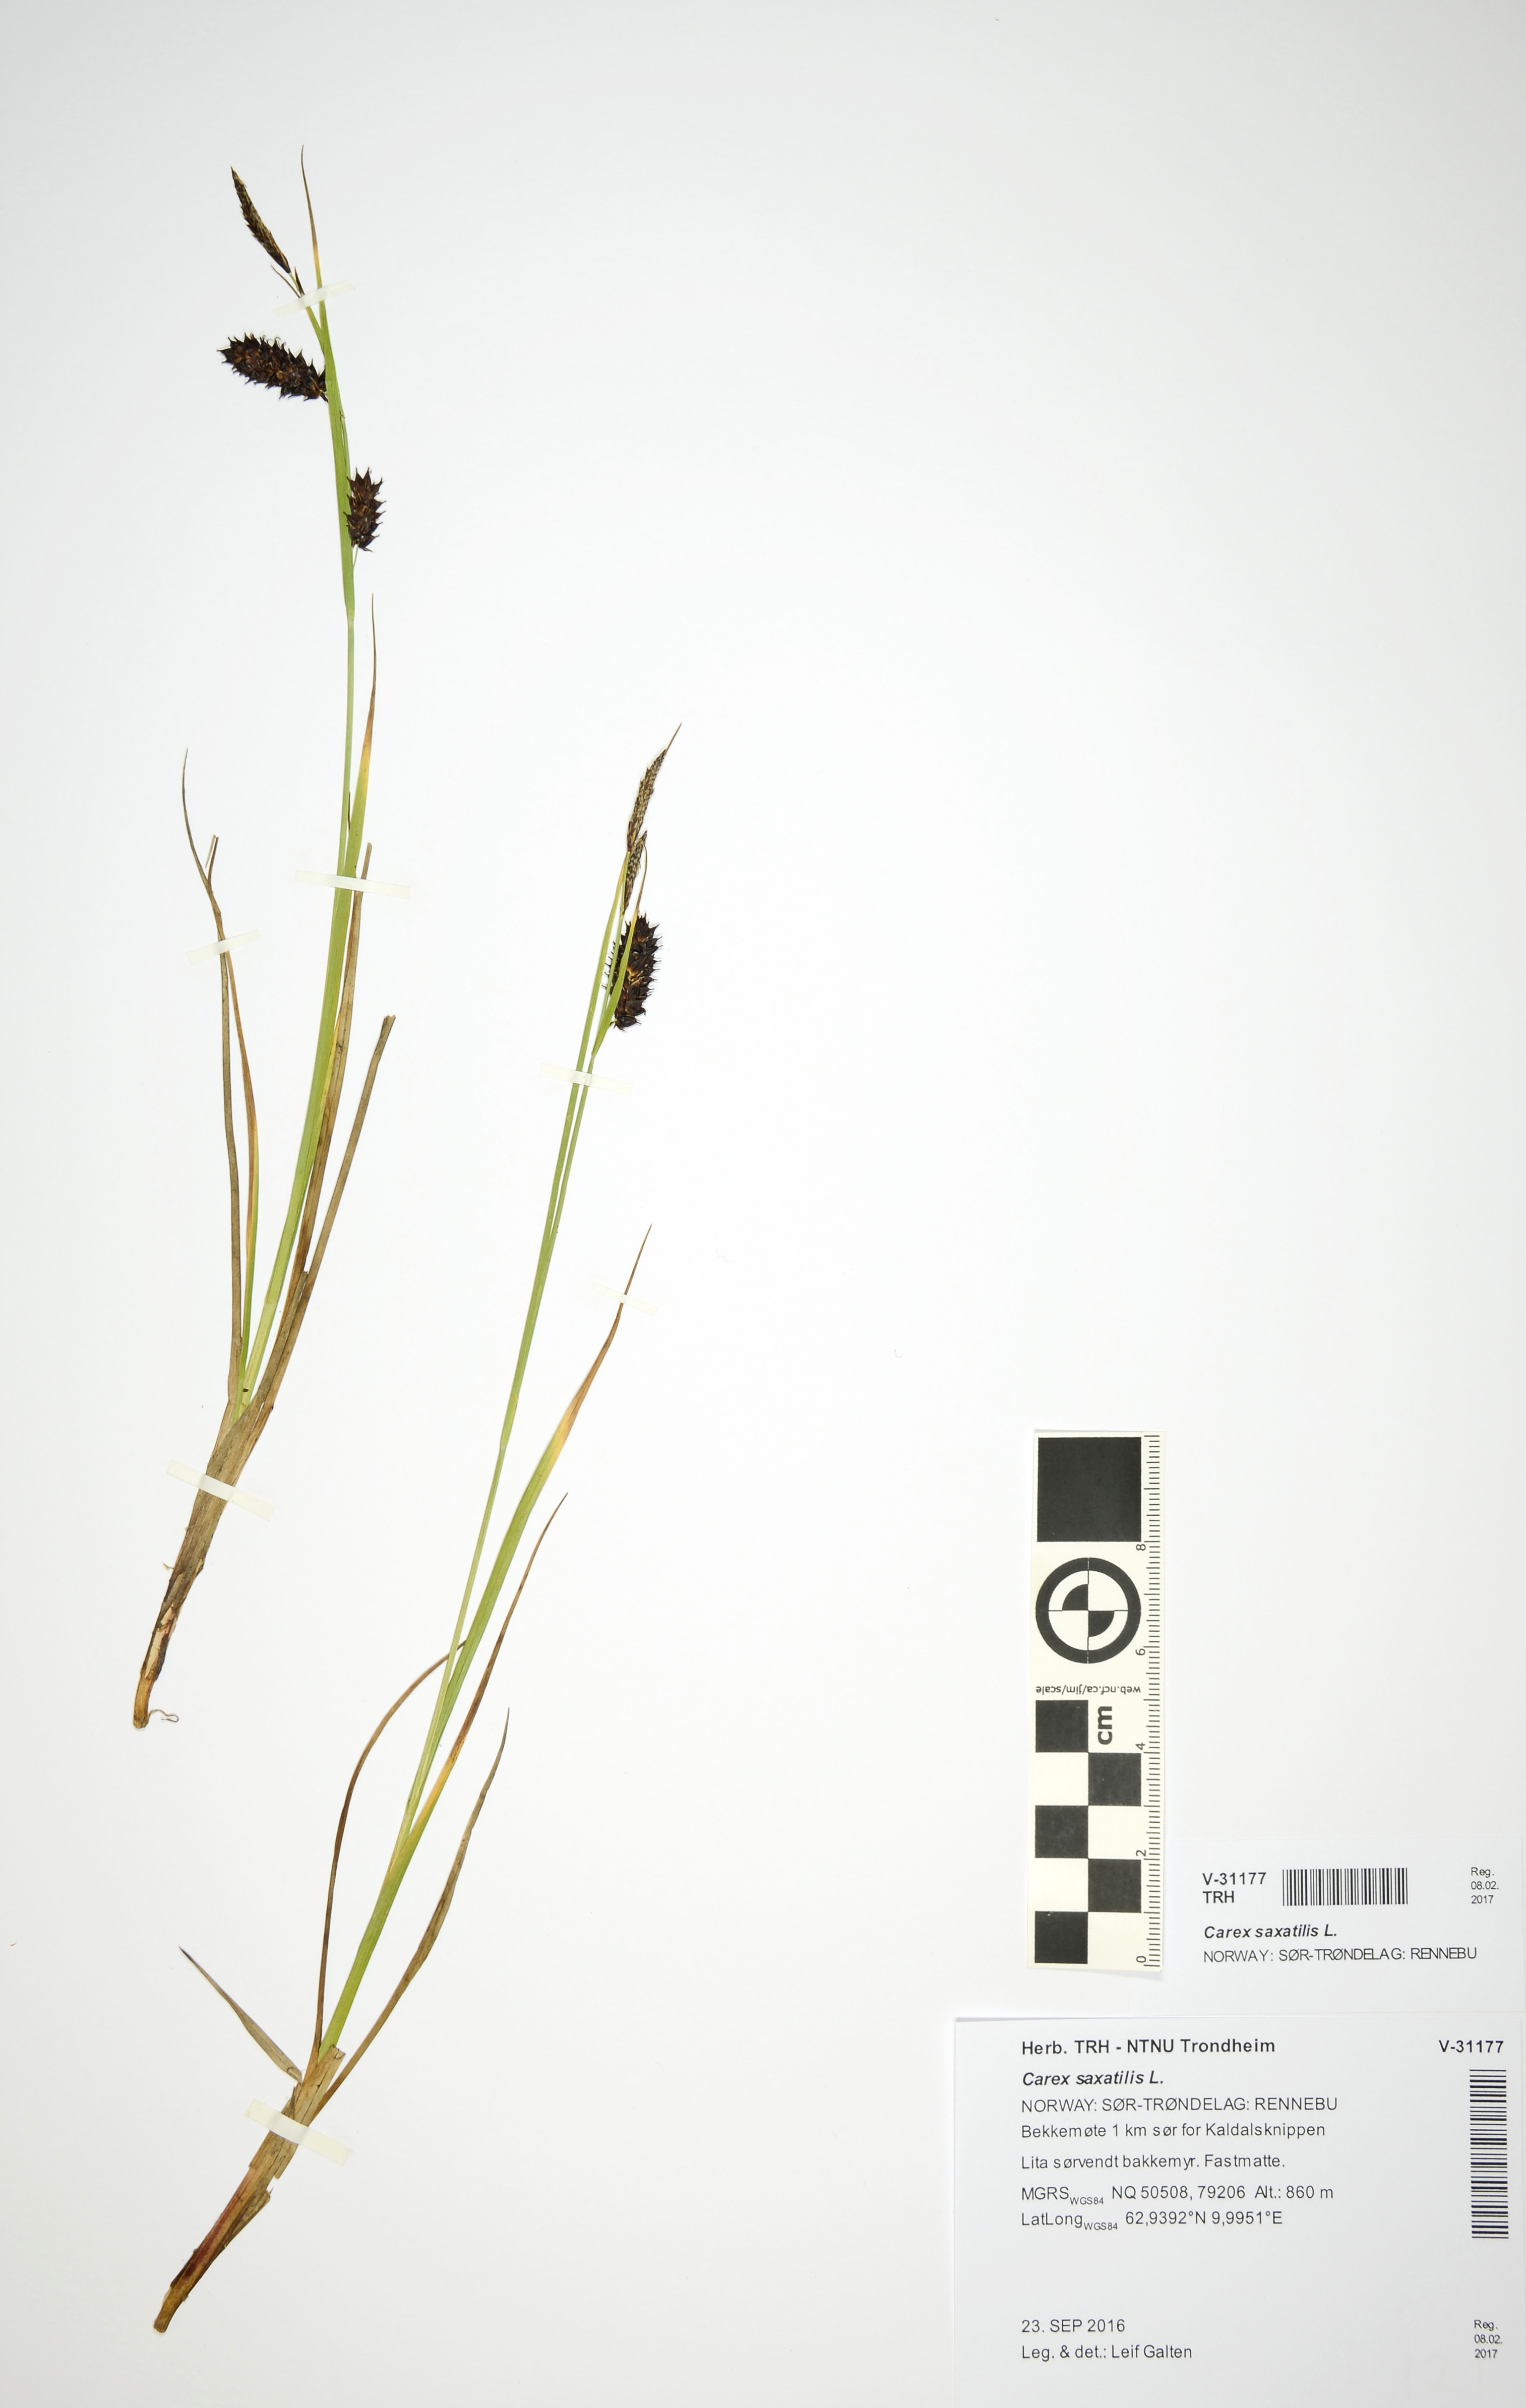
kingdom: Plantae
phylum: Tracheophyta
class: Liliopsida
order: Poales
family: Cyperaceae
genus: Carex
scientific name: Carex saxatilis
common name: Russet sedge
